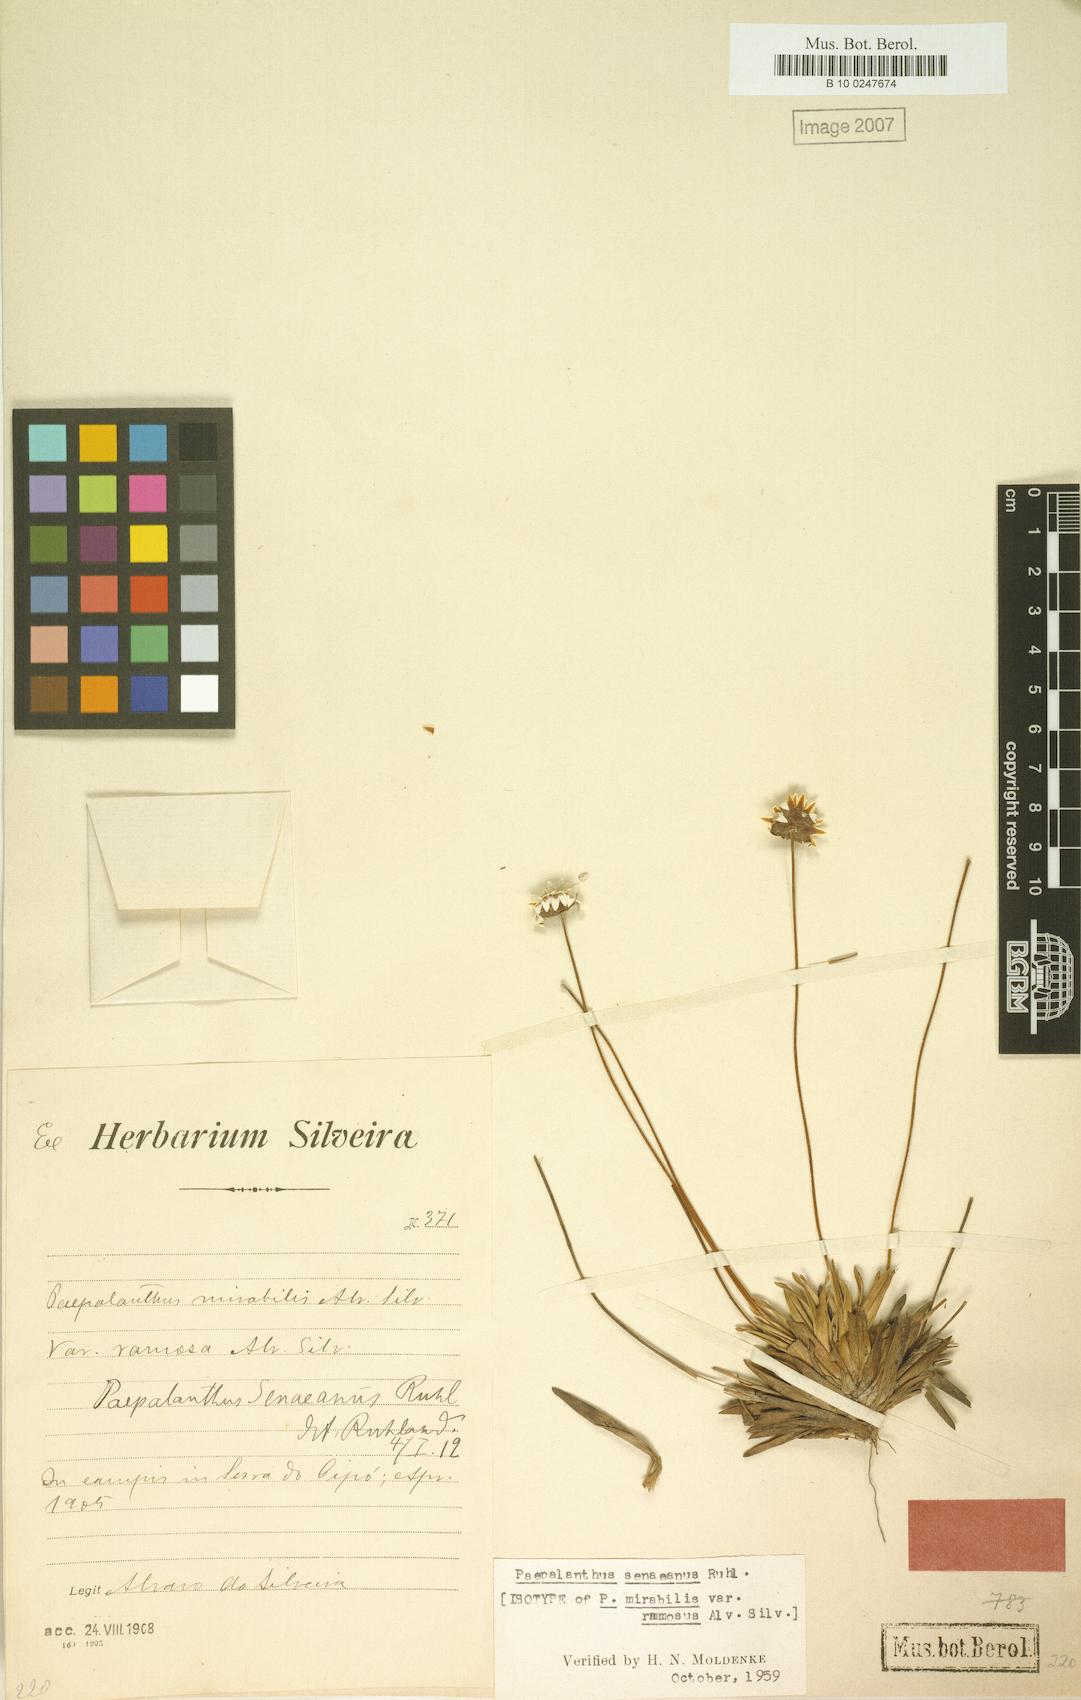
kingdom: Plantae
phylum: Tracheophyta
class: Liliopsida
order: Poales
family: Eriocaulaceae
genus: Paepalanthus
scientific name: Paepalanthus senaeanus
